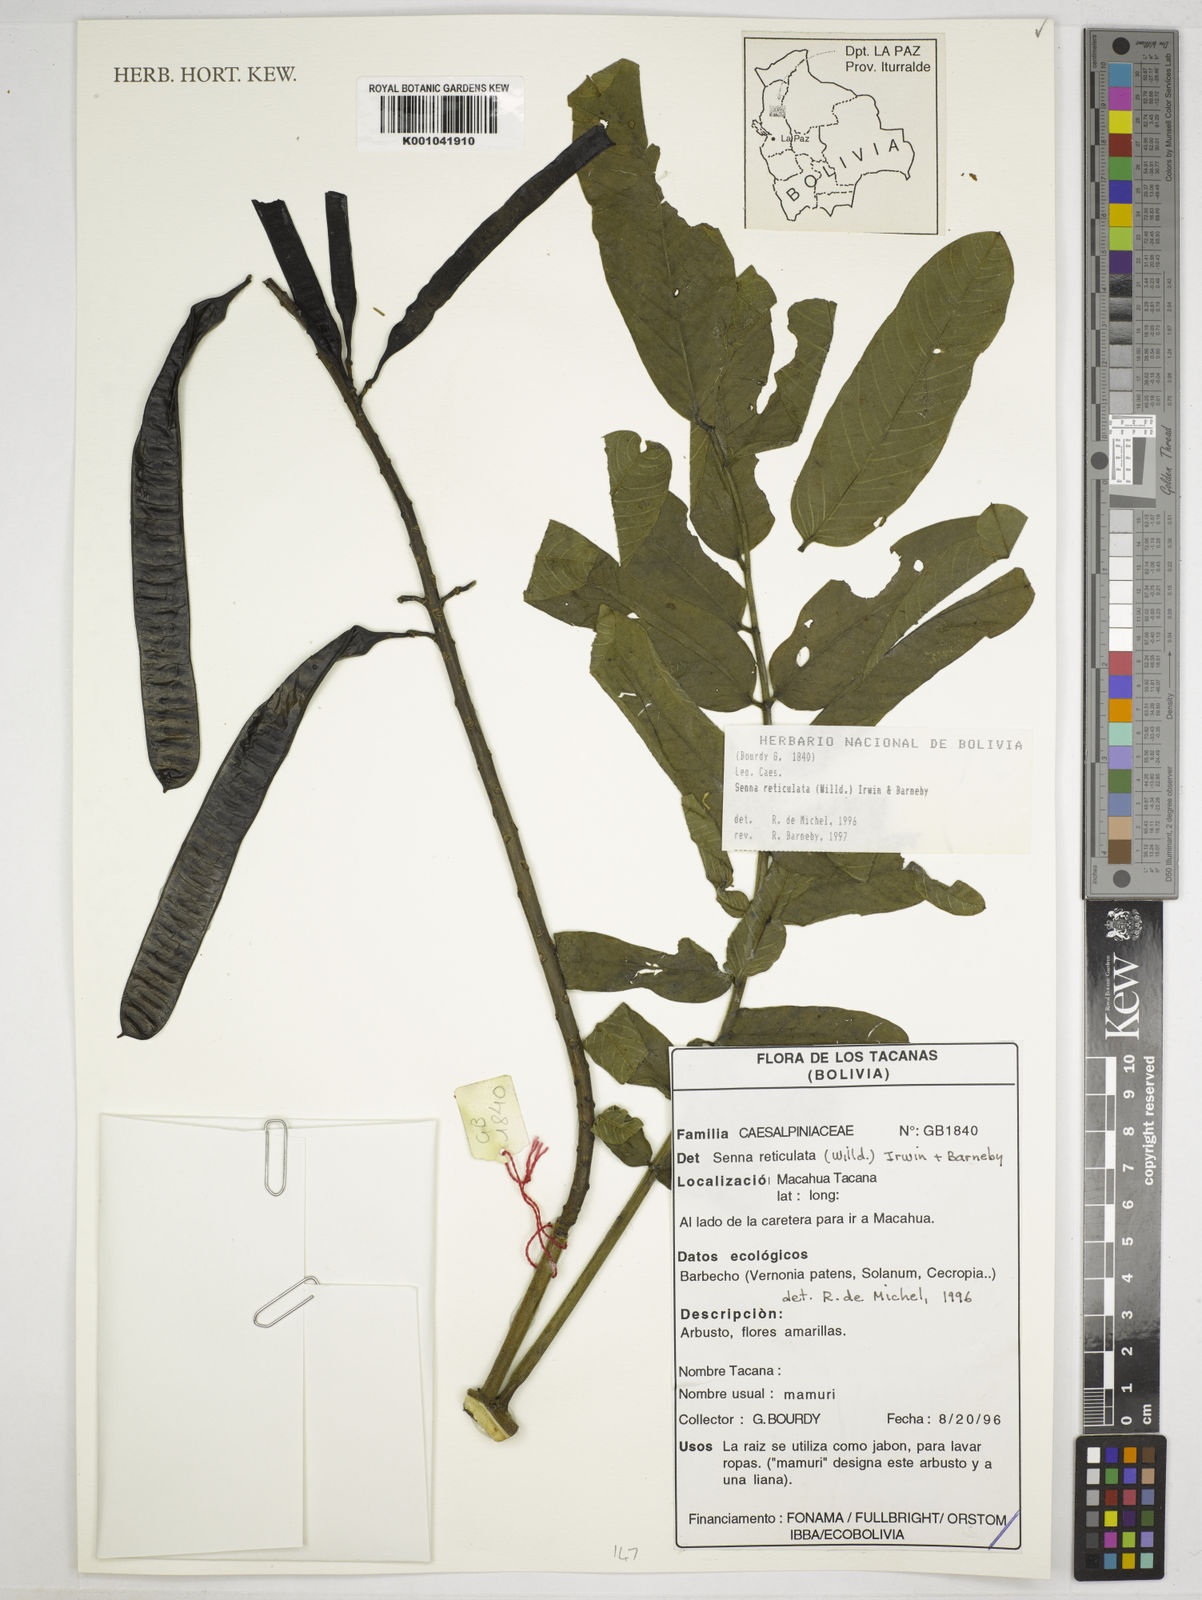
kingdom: Plantae
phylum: Tracheophyta
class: Magnoliopsida
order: Fabales
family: Fabaceae
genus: Senna
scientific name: Senna reticulata
